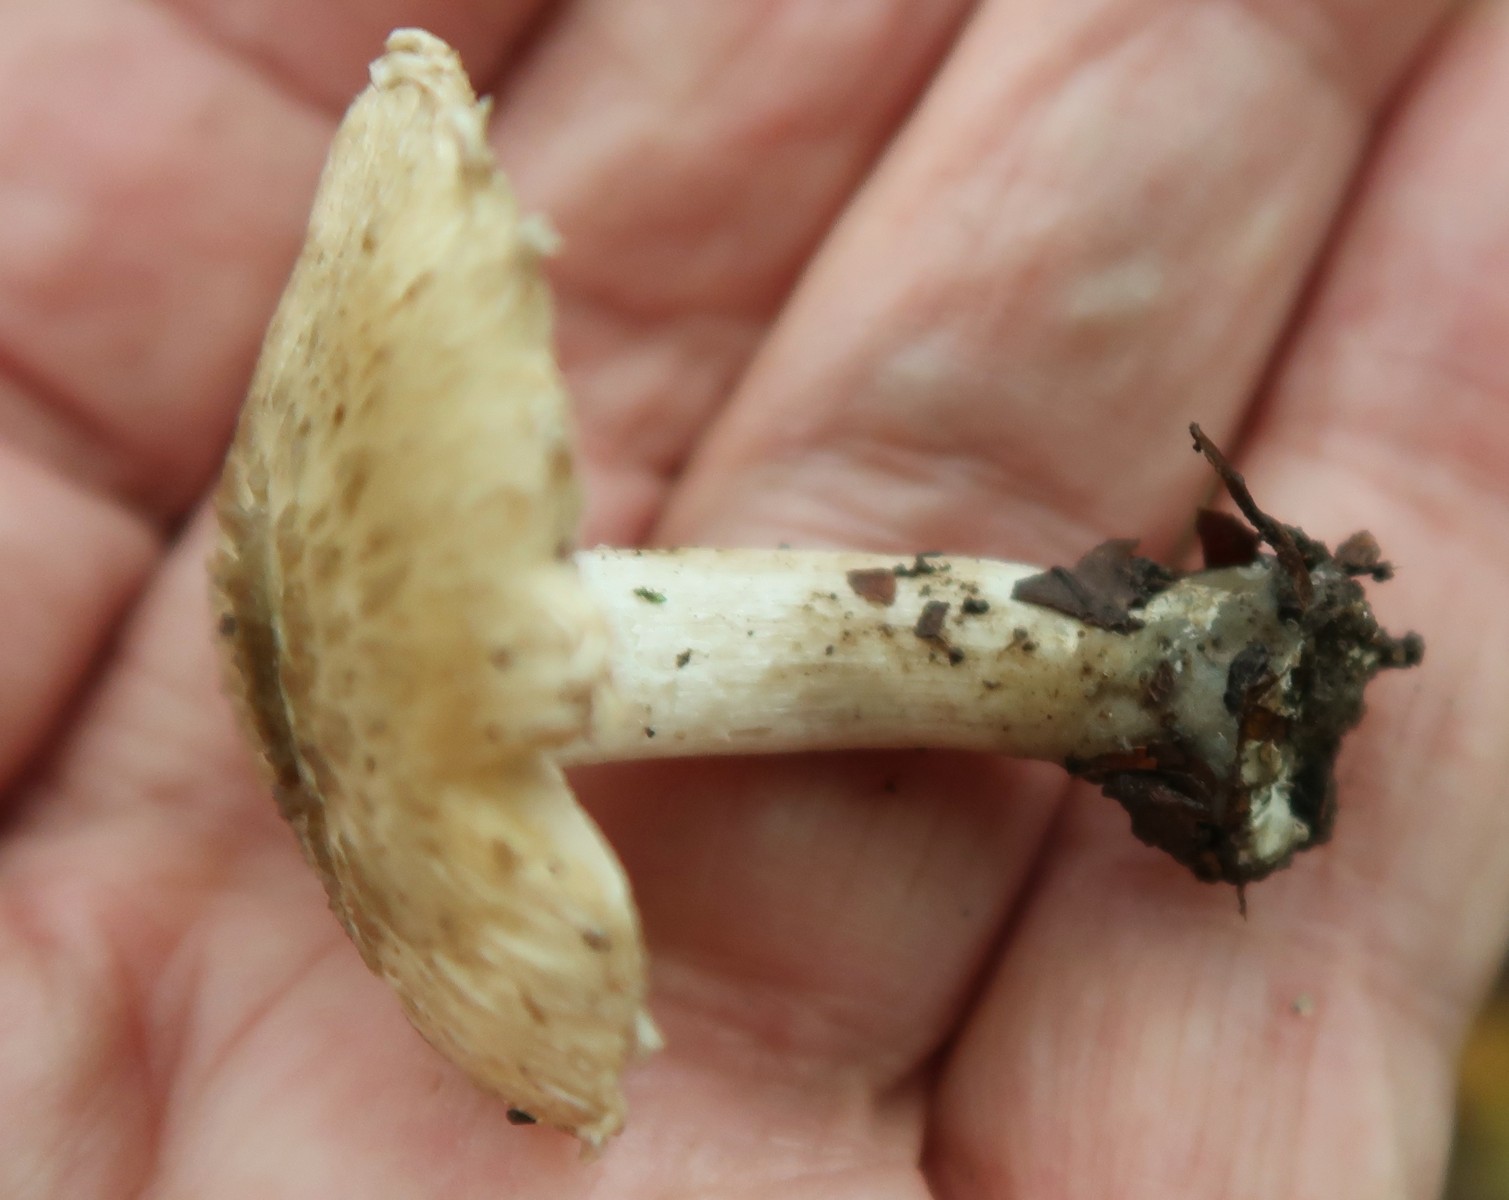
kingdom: Fungi
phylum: Basidiomycota
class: Agaricomycetes
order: Agaricales
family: Inocybaceae
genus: Inocybe
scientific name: Inocybe corydalina
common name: grønpuklet trævlhat
